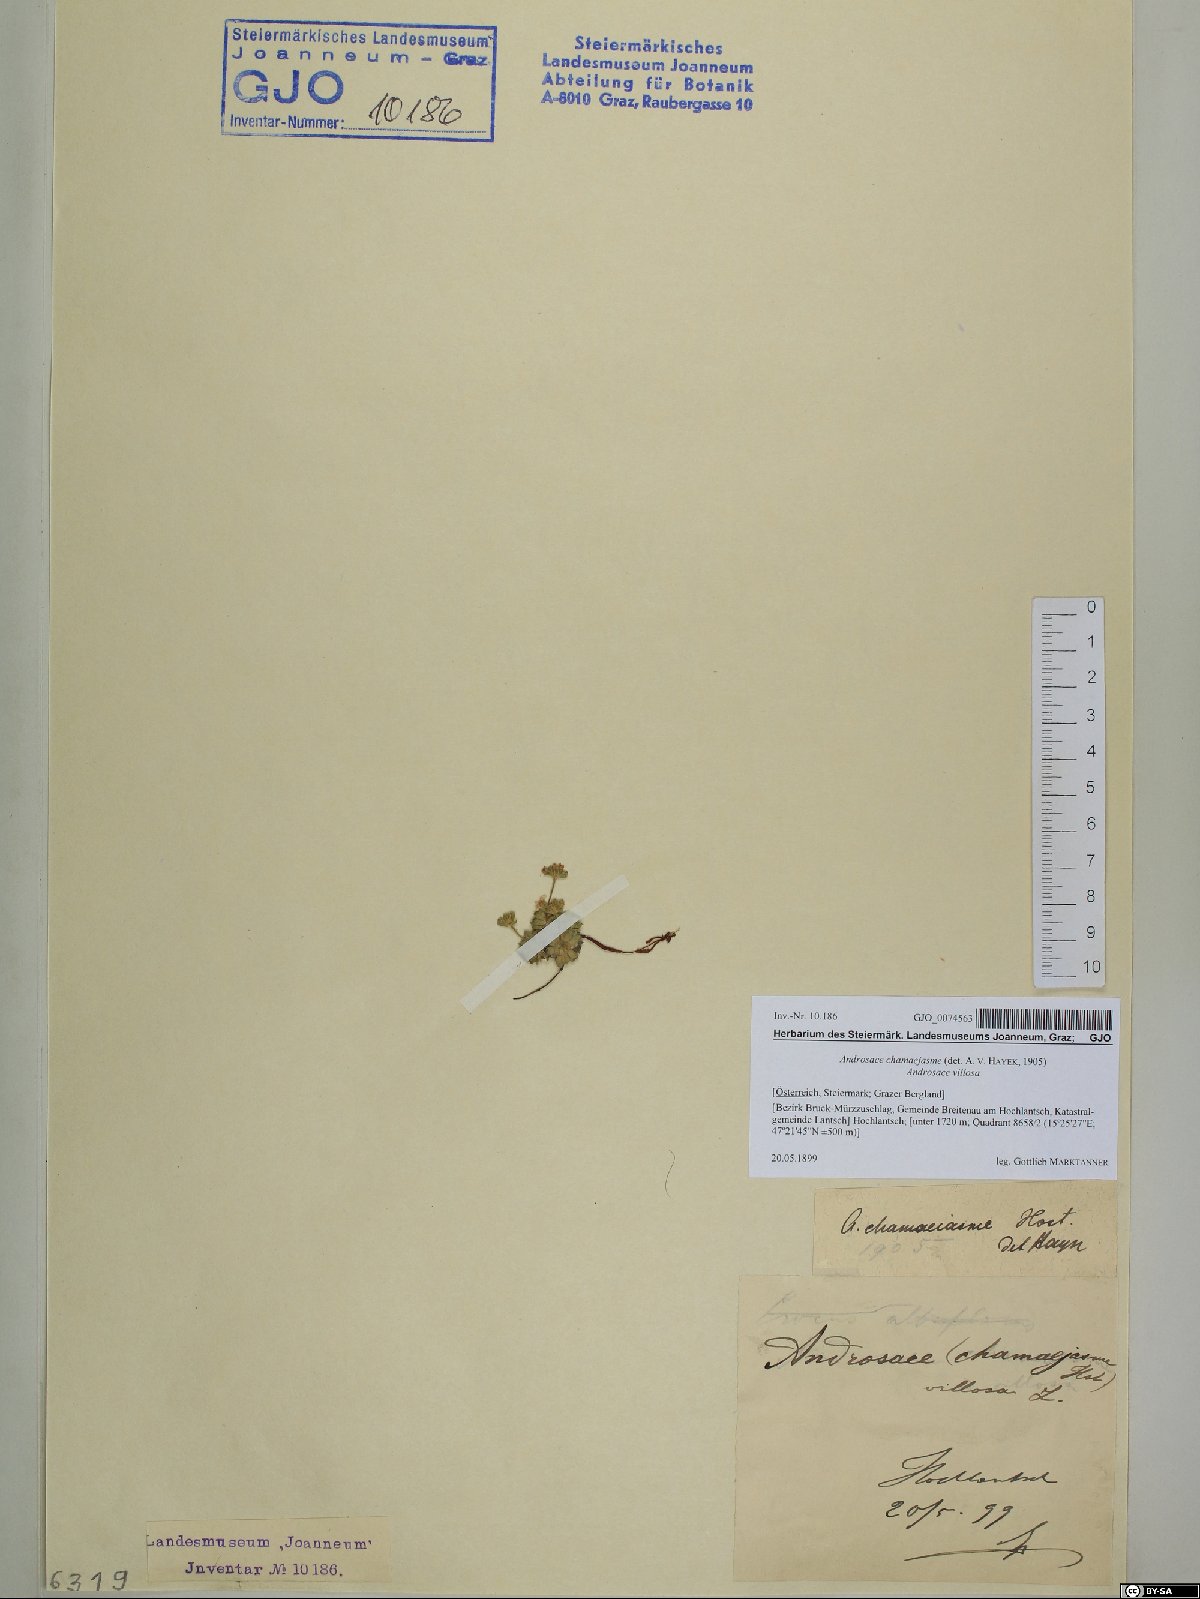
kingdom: Plantae
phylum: Tracheophyta
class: Magnoliopsida
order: Ericales
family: Primulaceae
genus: Androsace
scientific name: Androsace chamaejasme
